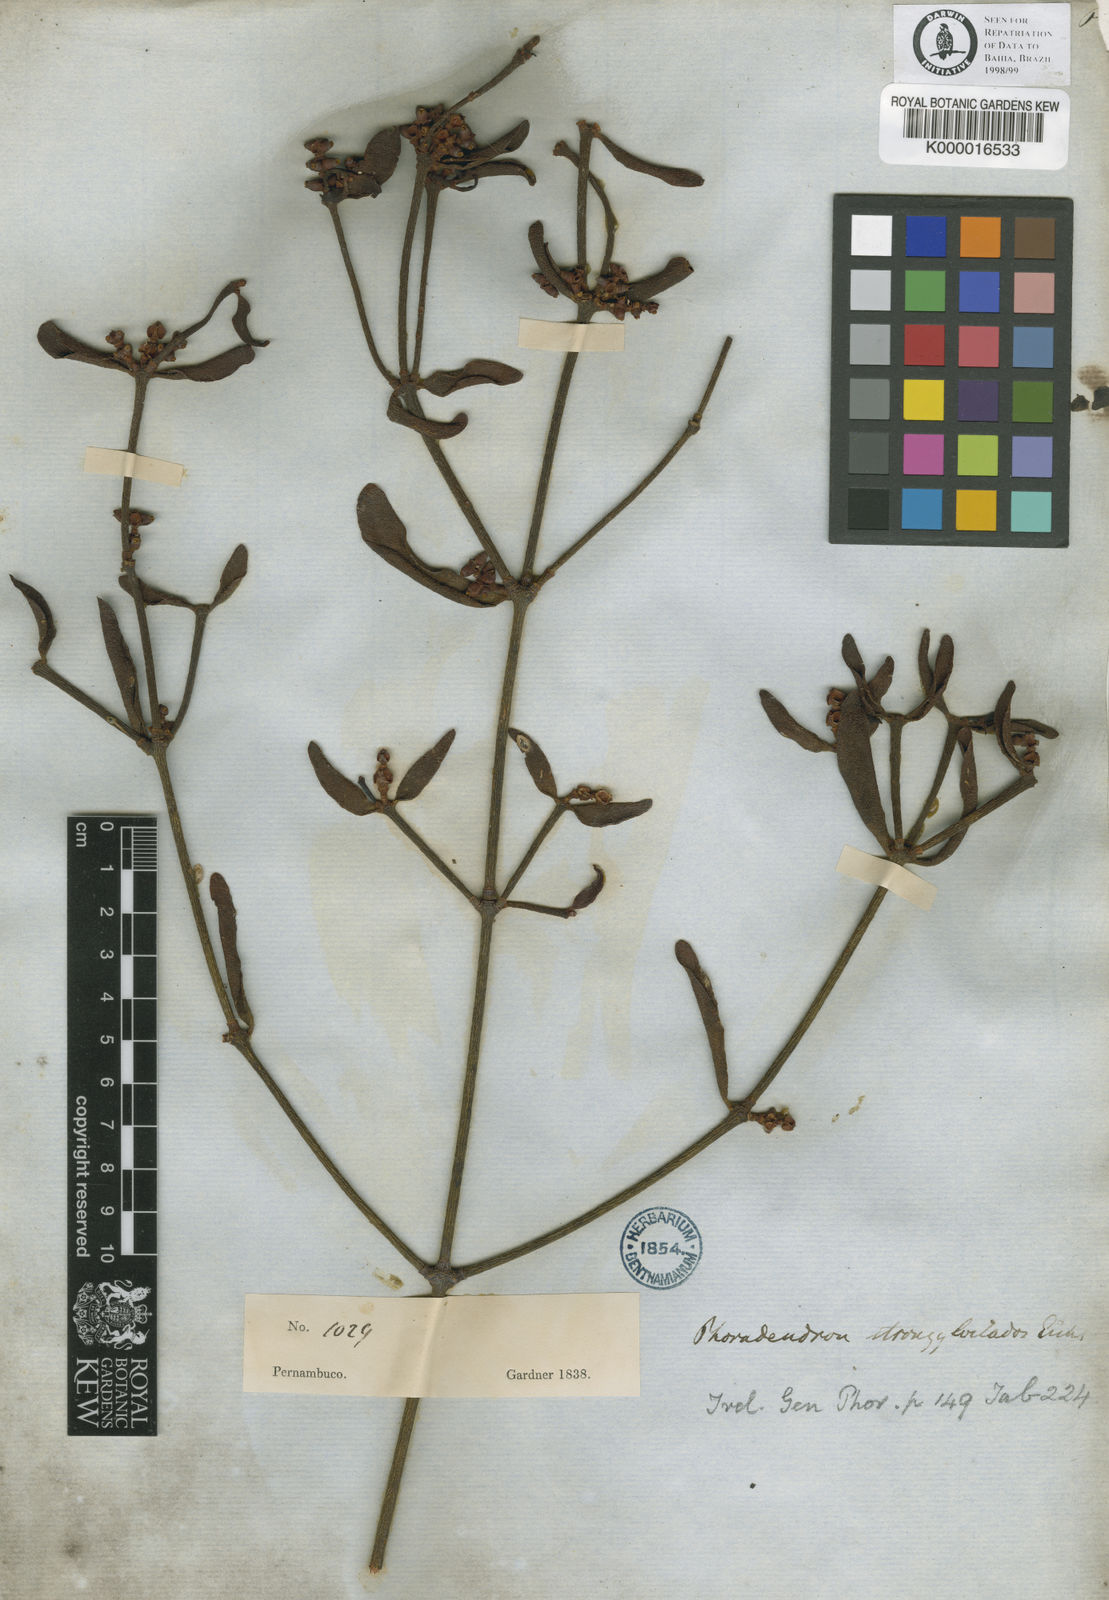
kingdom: Plantae
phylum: Tracheophyta
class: Magnoliopsida
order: Santalales
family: Viscaceae
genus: Phoradendron
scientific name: Phoradendron strongyloclados
